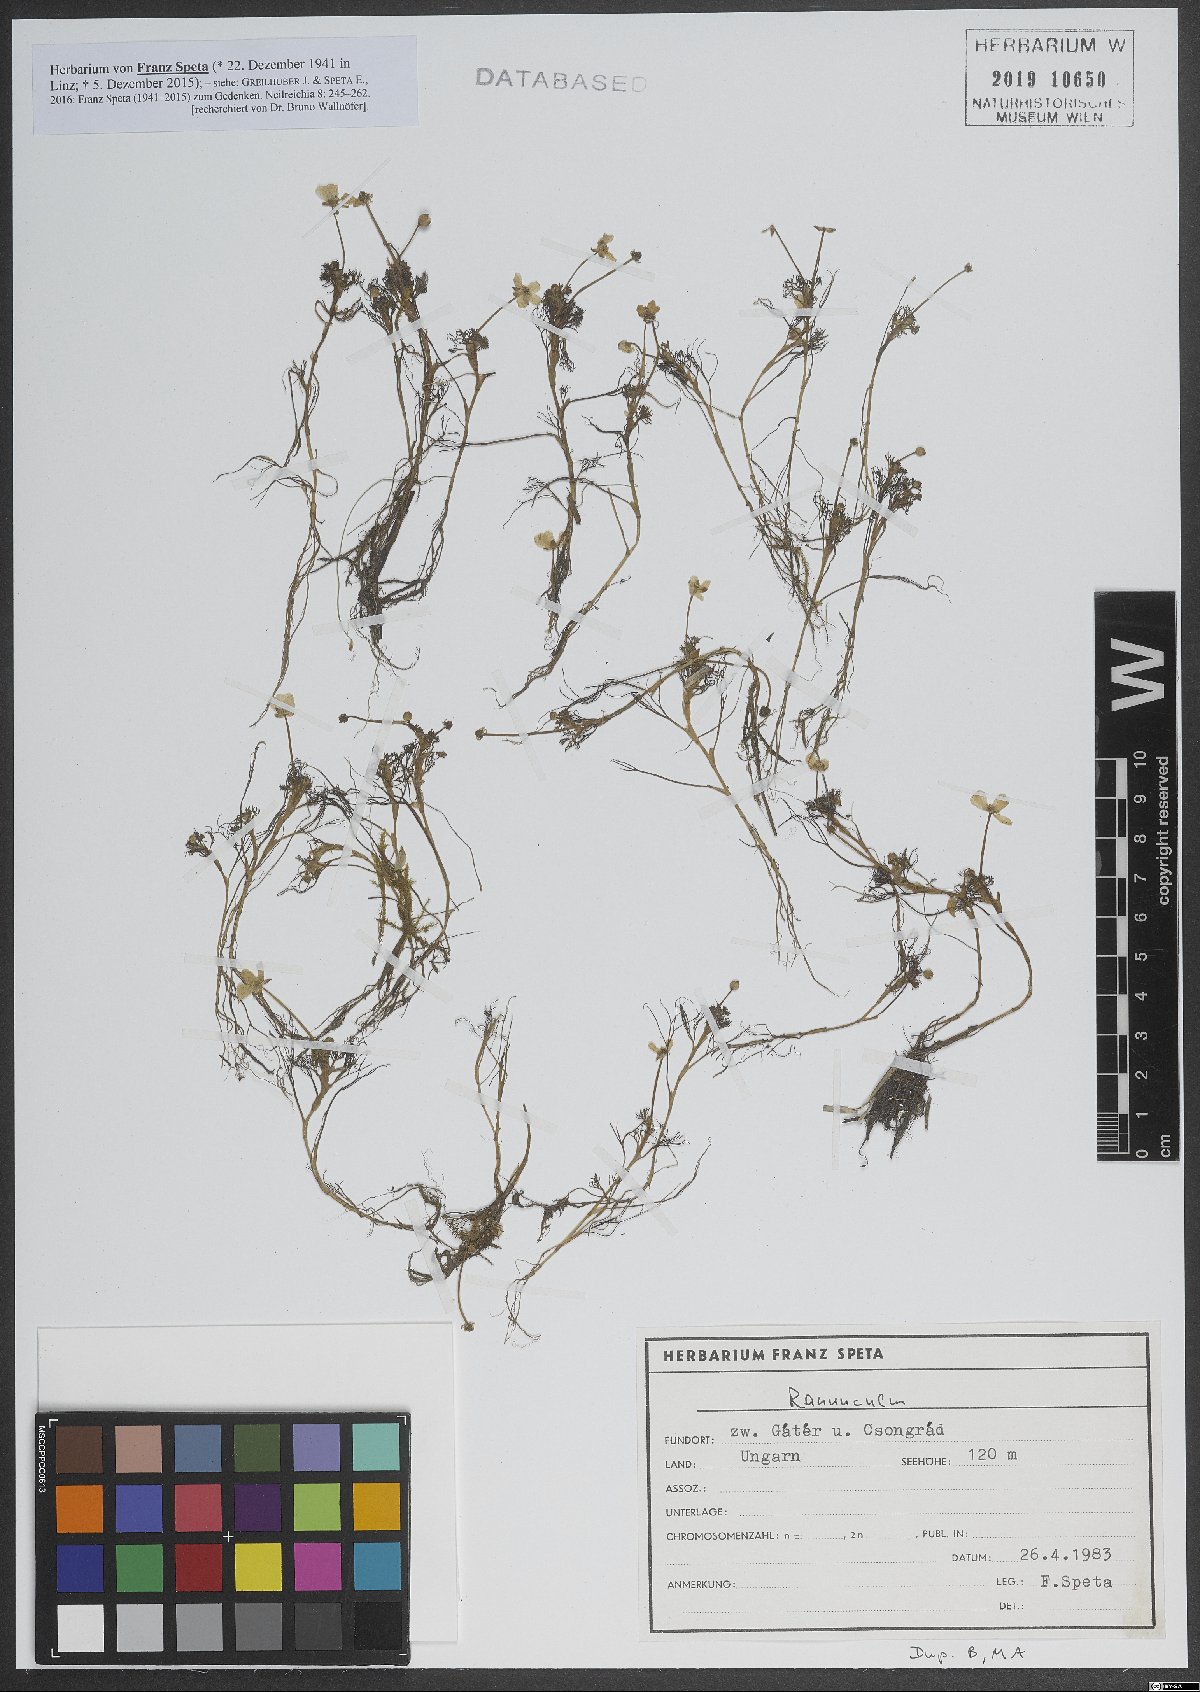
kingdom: Plantae
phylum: Tracheophyta
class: Magnoliopsida
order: Ranunculales
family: Ranunculaceae
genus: Ranunculus
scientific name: Ranunculus trichophyllus
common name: Thread-leaved water-crowfoot
